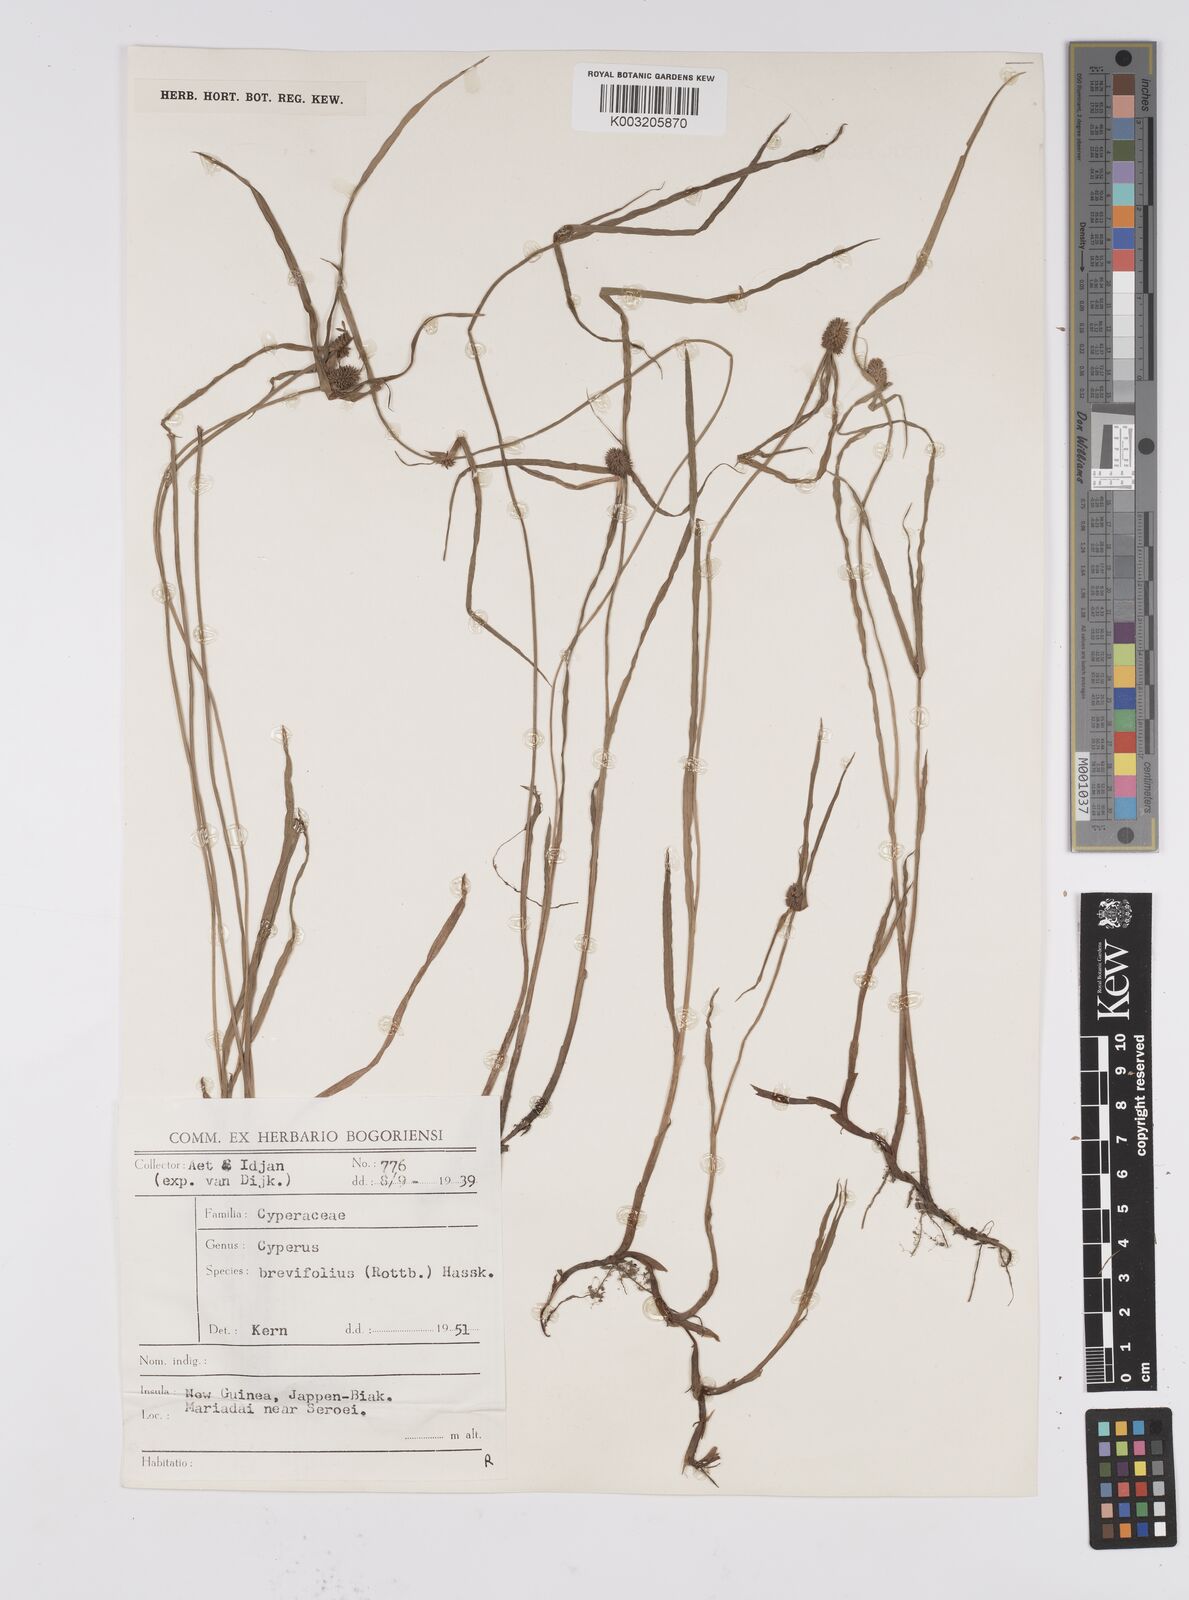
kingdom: Plantae
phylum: Tracheophyta
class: Liliopsida
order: Poales
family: Cyperaceae
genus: Cyperus
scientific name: Cyperus brevifolius
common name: Globe kyllinga
